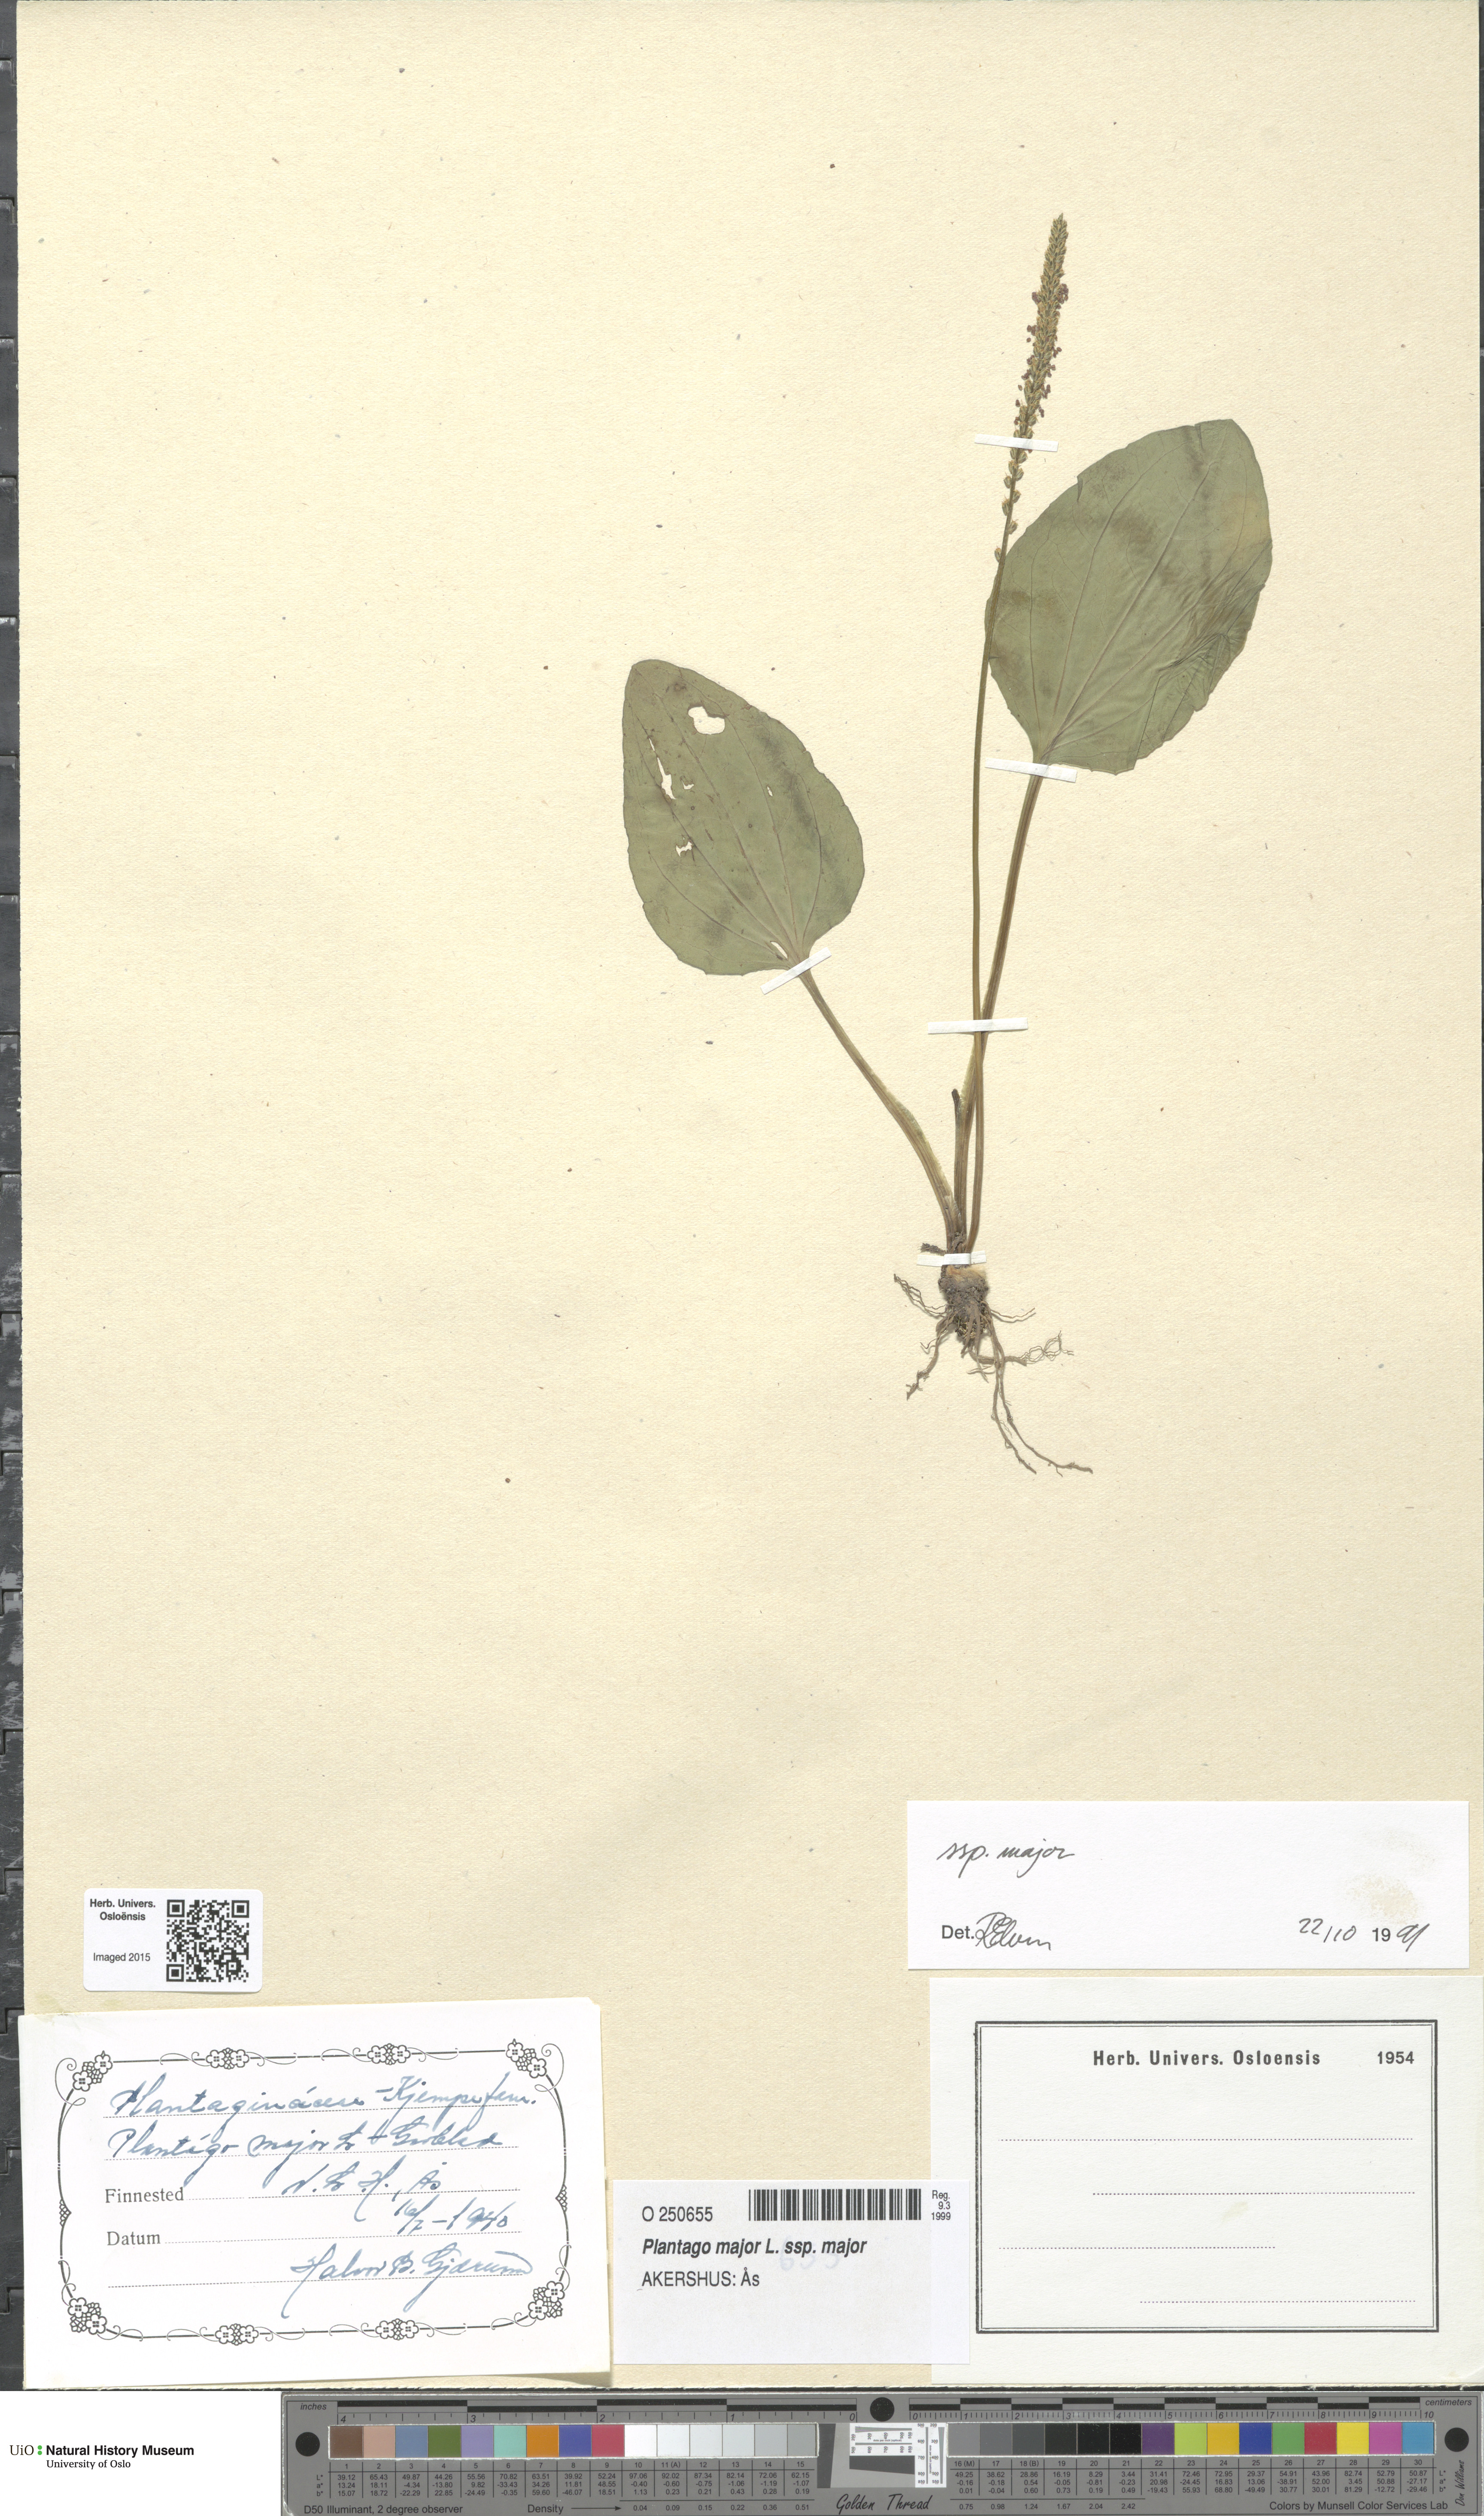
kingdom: Plantae
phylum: Tracheophyta
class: Magnoliopsida
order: Lamiales
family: Plantaginaceae
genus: Plantago
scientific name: Plantago major
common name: Common plantain
